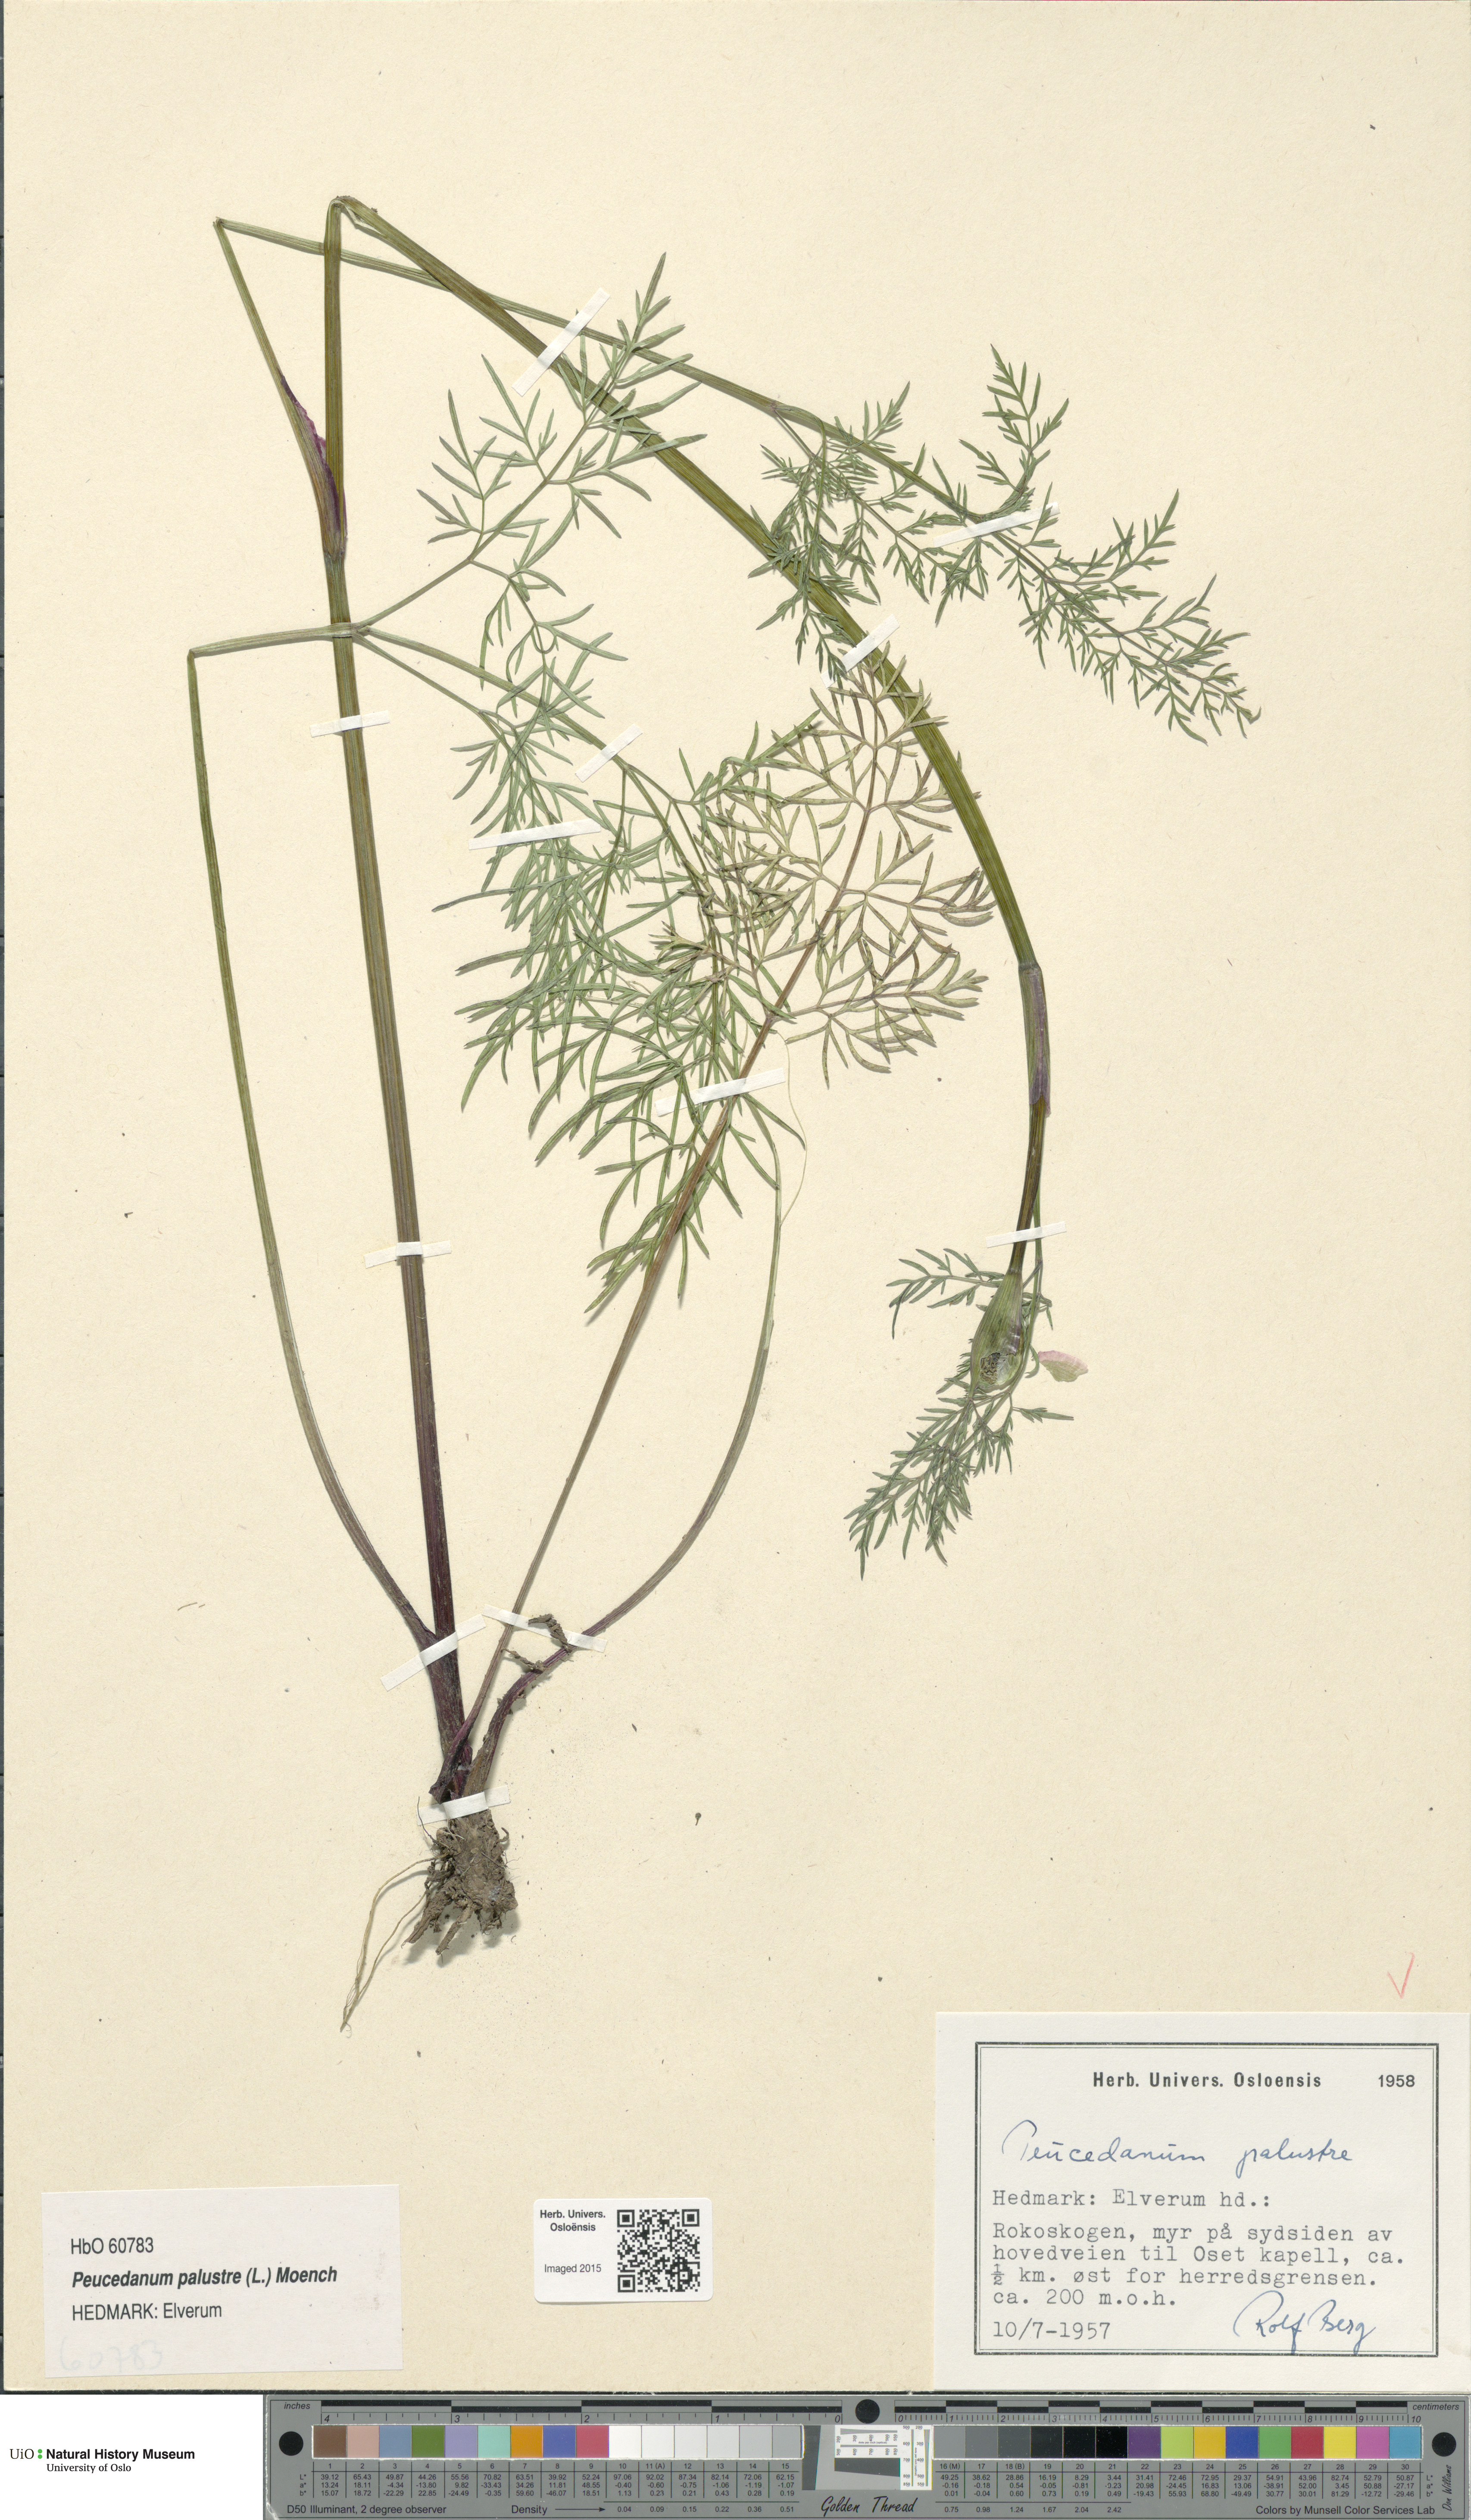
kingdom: Plantae
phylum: Tracheophyta
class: Magnoliopsida
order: Apiales
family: Apiaceae
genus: Thysselinum
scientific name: Thysselinum palustre
